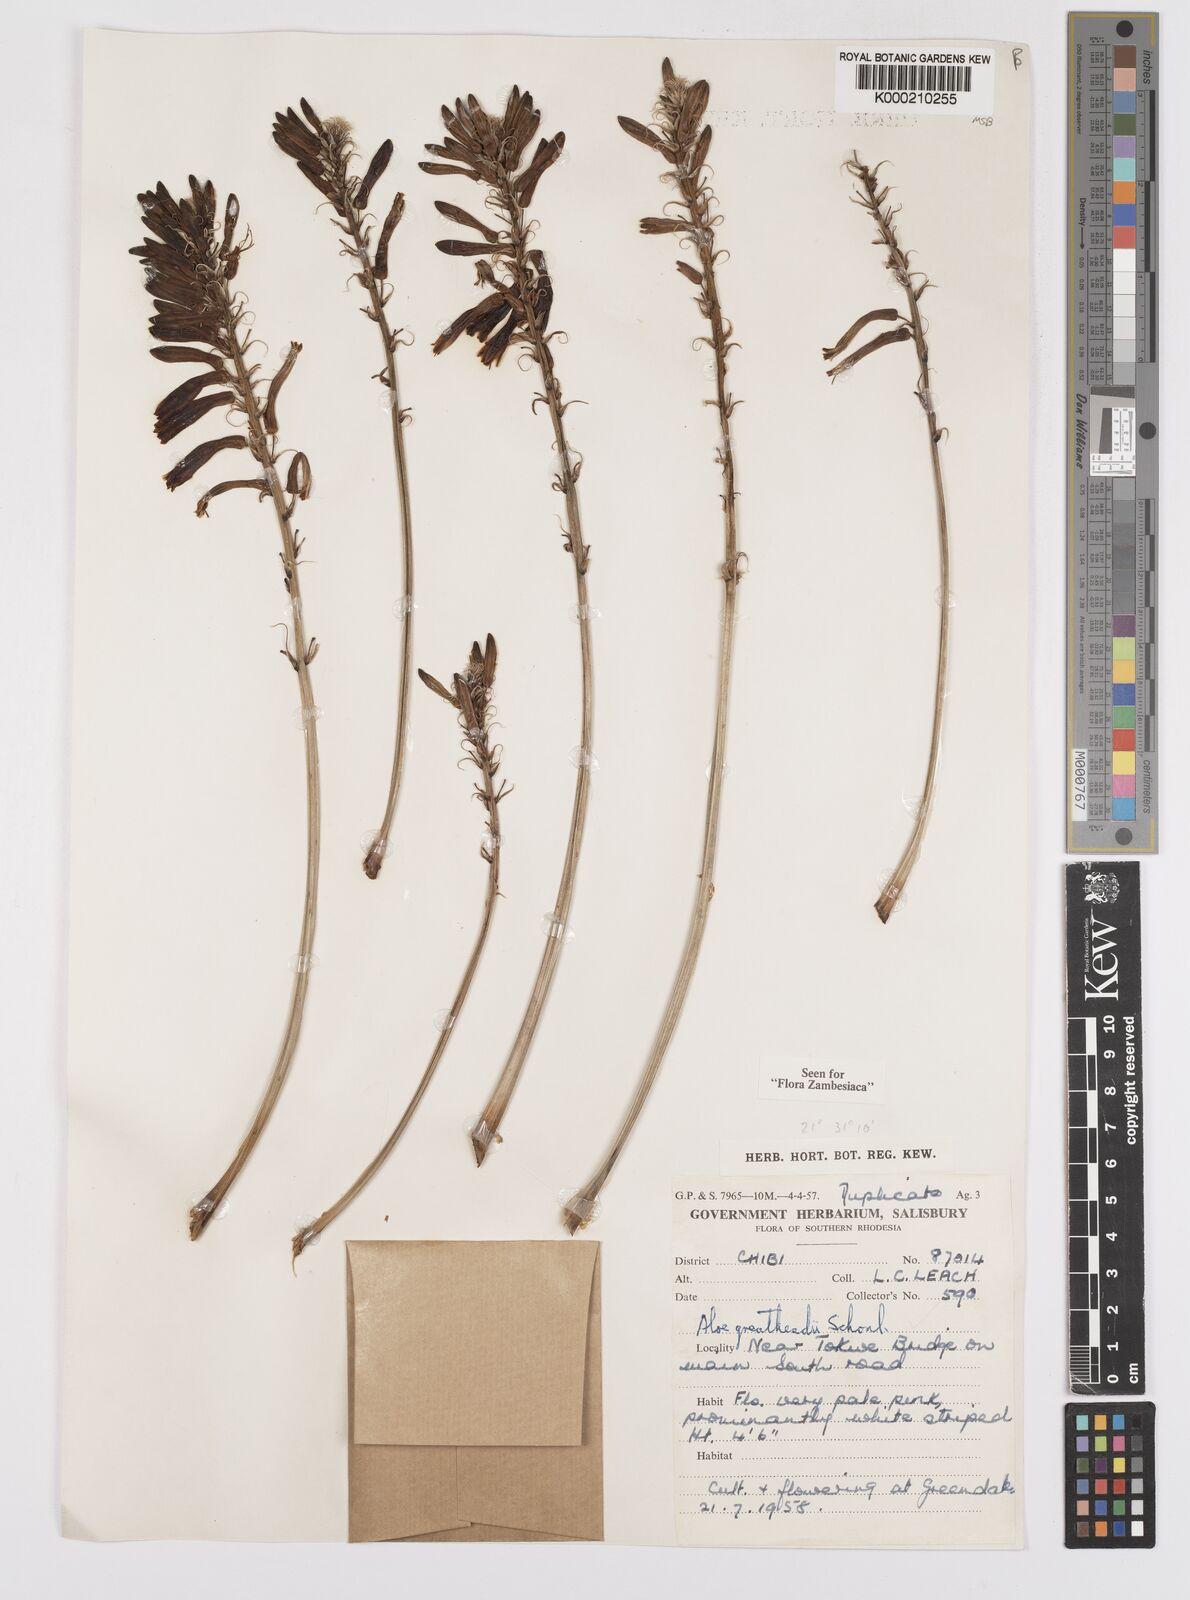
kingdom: Plantae
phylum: Tracheophyta
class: Liliopsida
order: Asparagales
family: Asphodelaceae
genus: Aloe
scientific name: Aloe greatheadii
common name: Greathead's aloe
